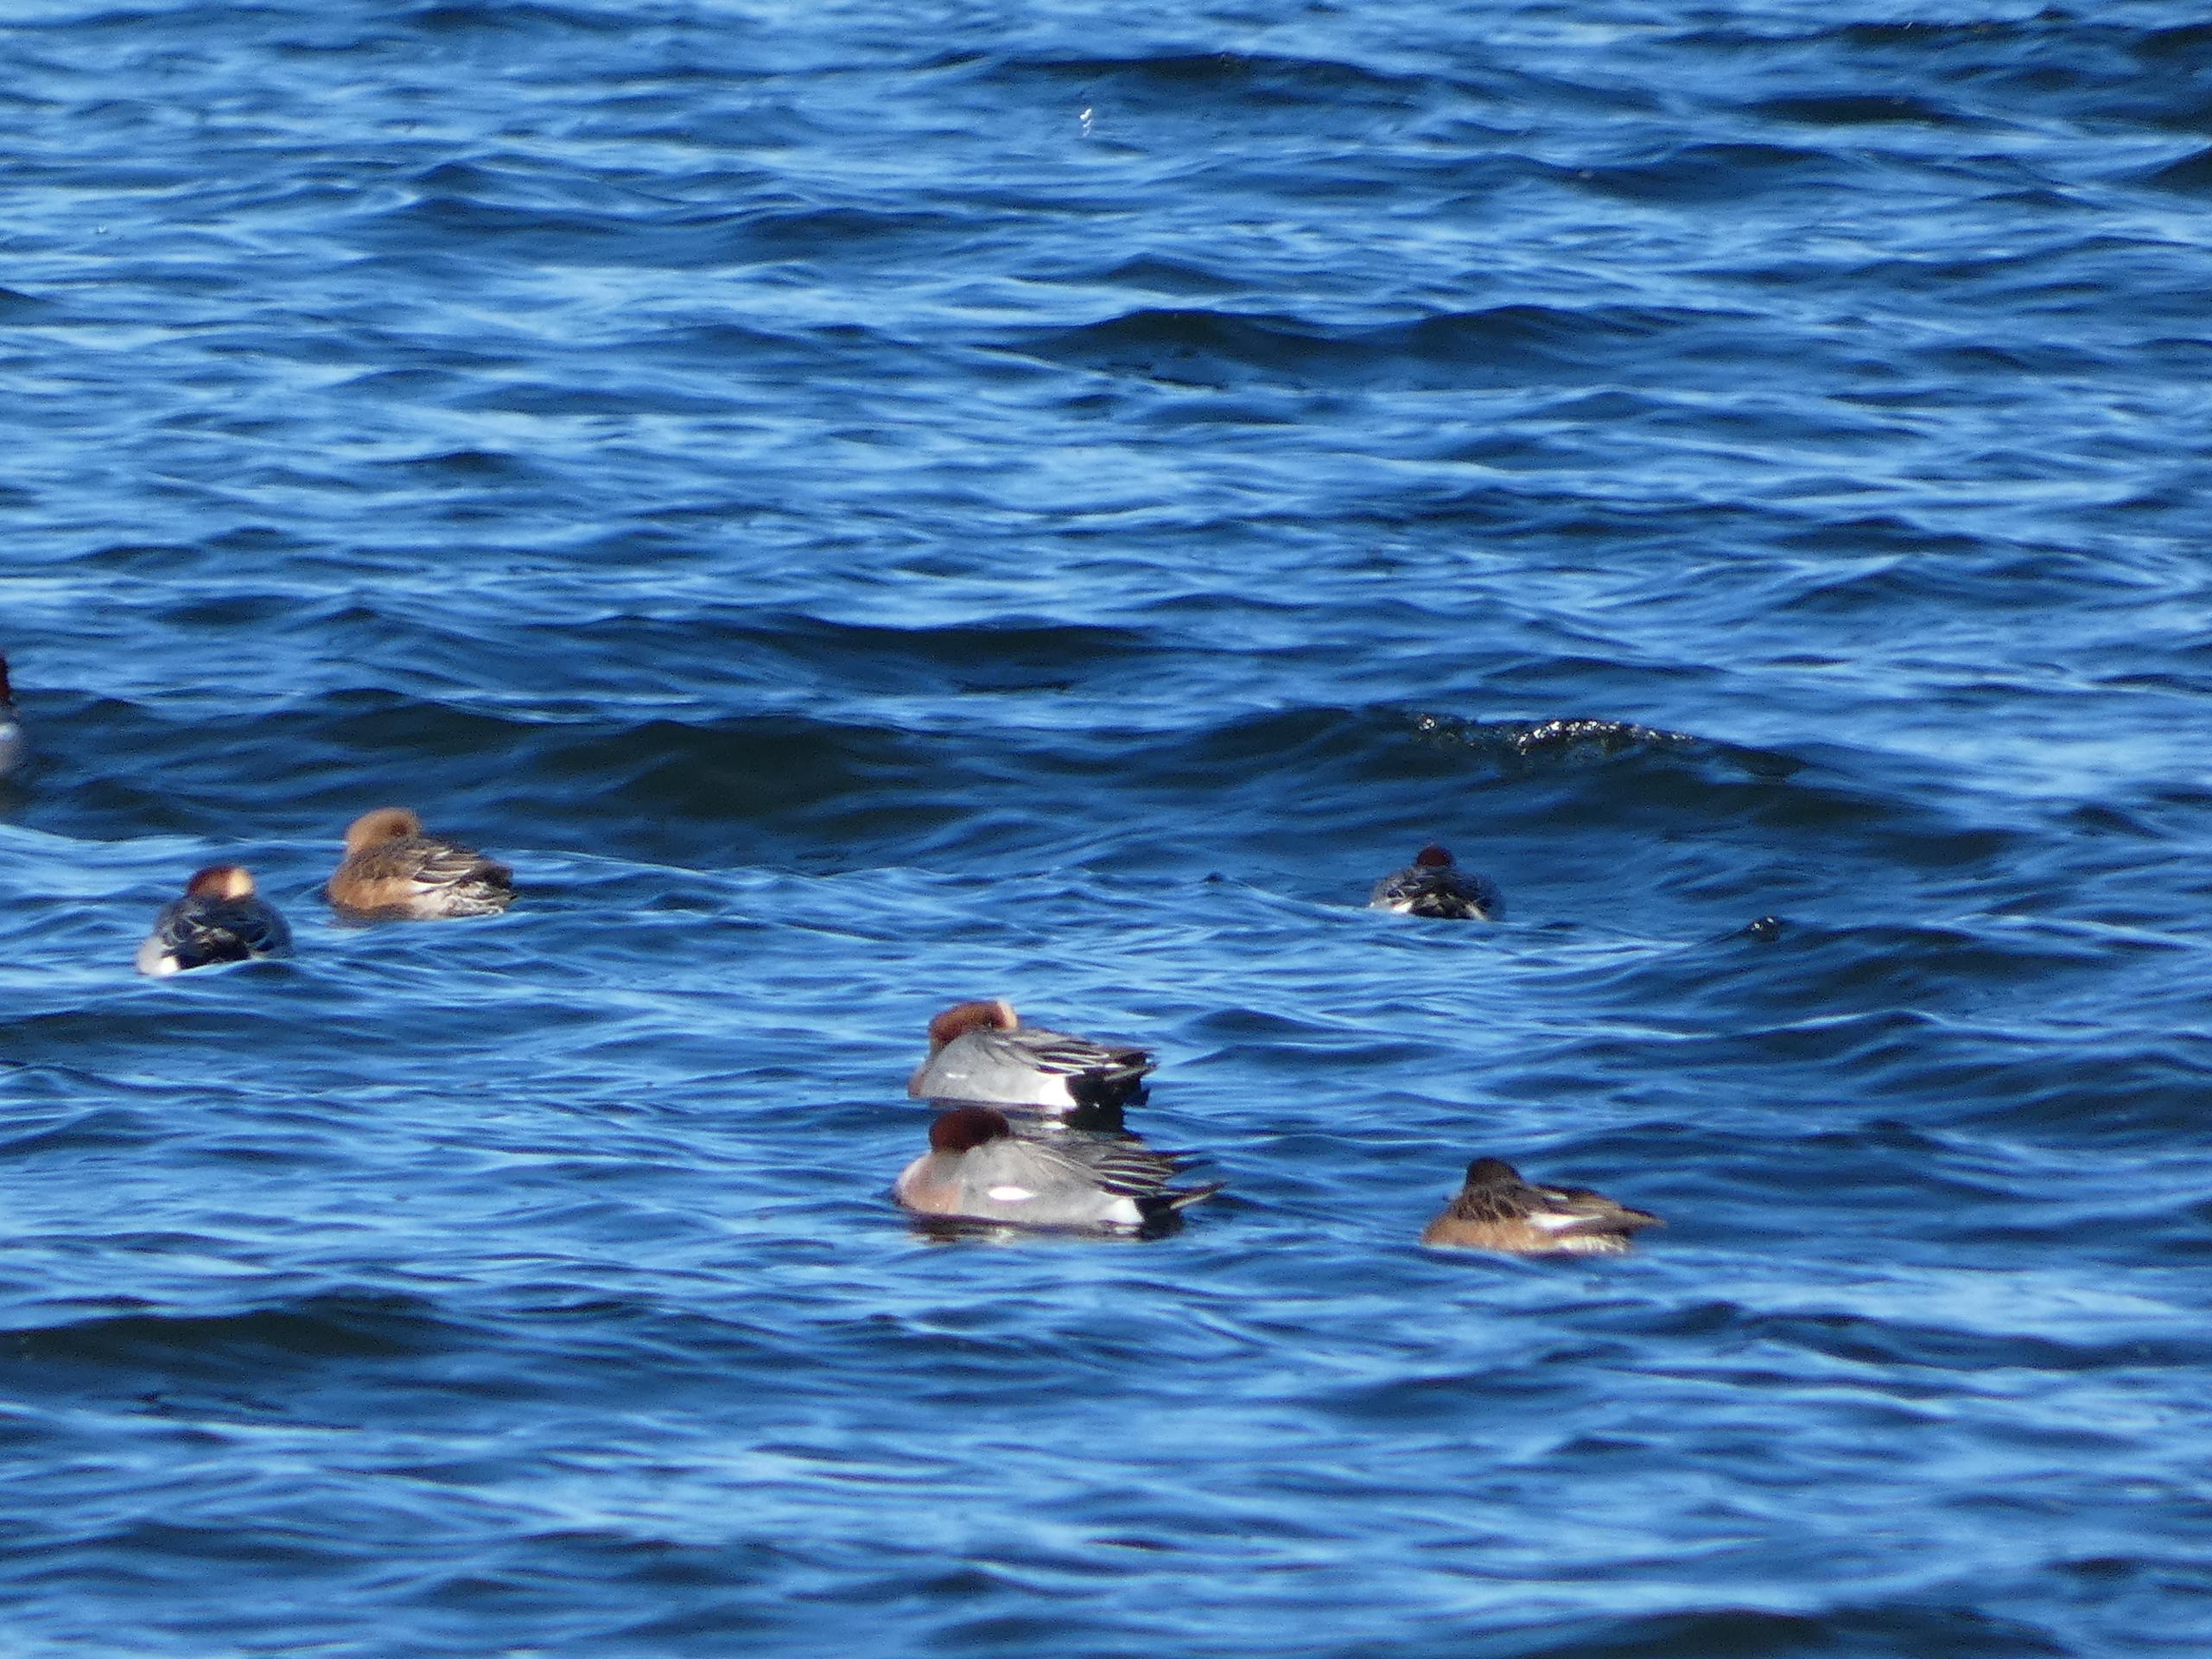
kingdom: Animalia
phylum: Chordata
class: Aves
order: Anseriformes
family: Anatidae
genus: Mareca
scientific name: Mareca penelope
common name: Pibeand
